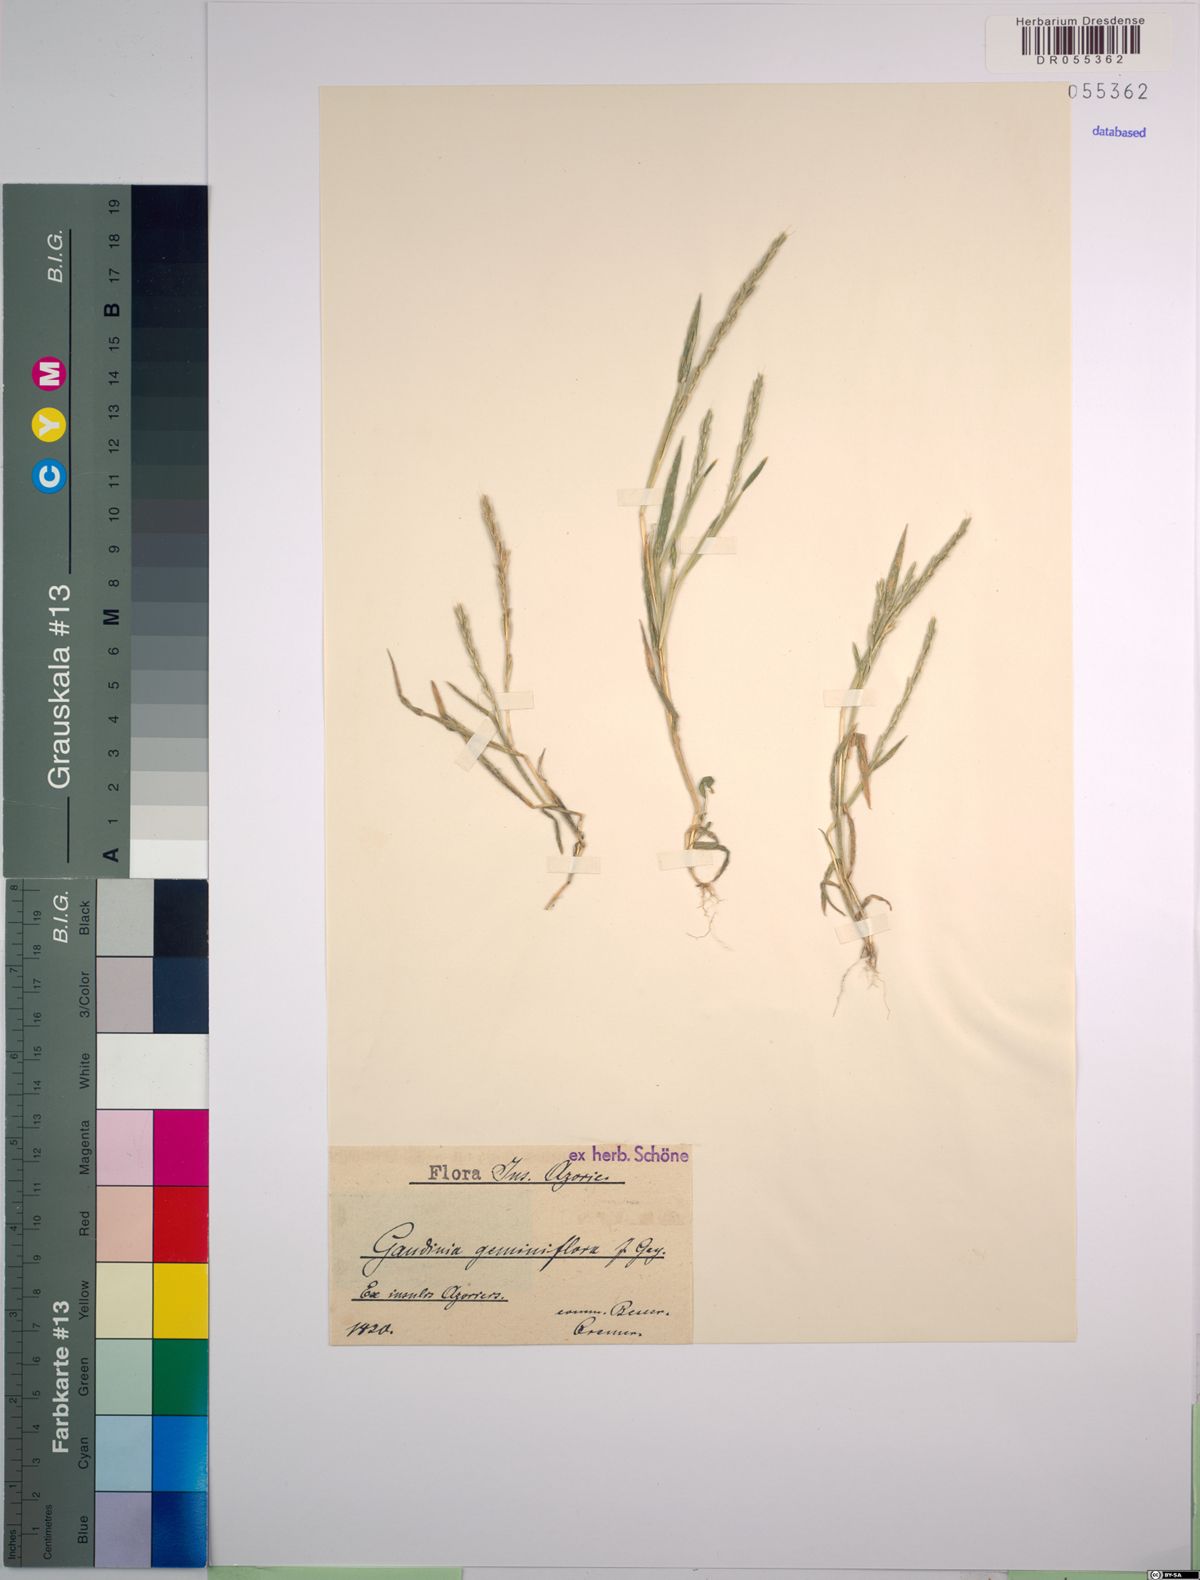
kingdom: Plantae
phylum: Tracheophyta
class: Liliopsida
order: Poales
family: Poaceae
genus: Gaudinia
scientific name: Gaudinia coarctata
